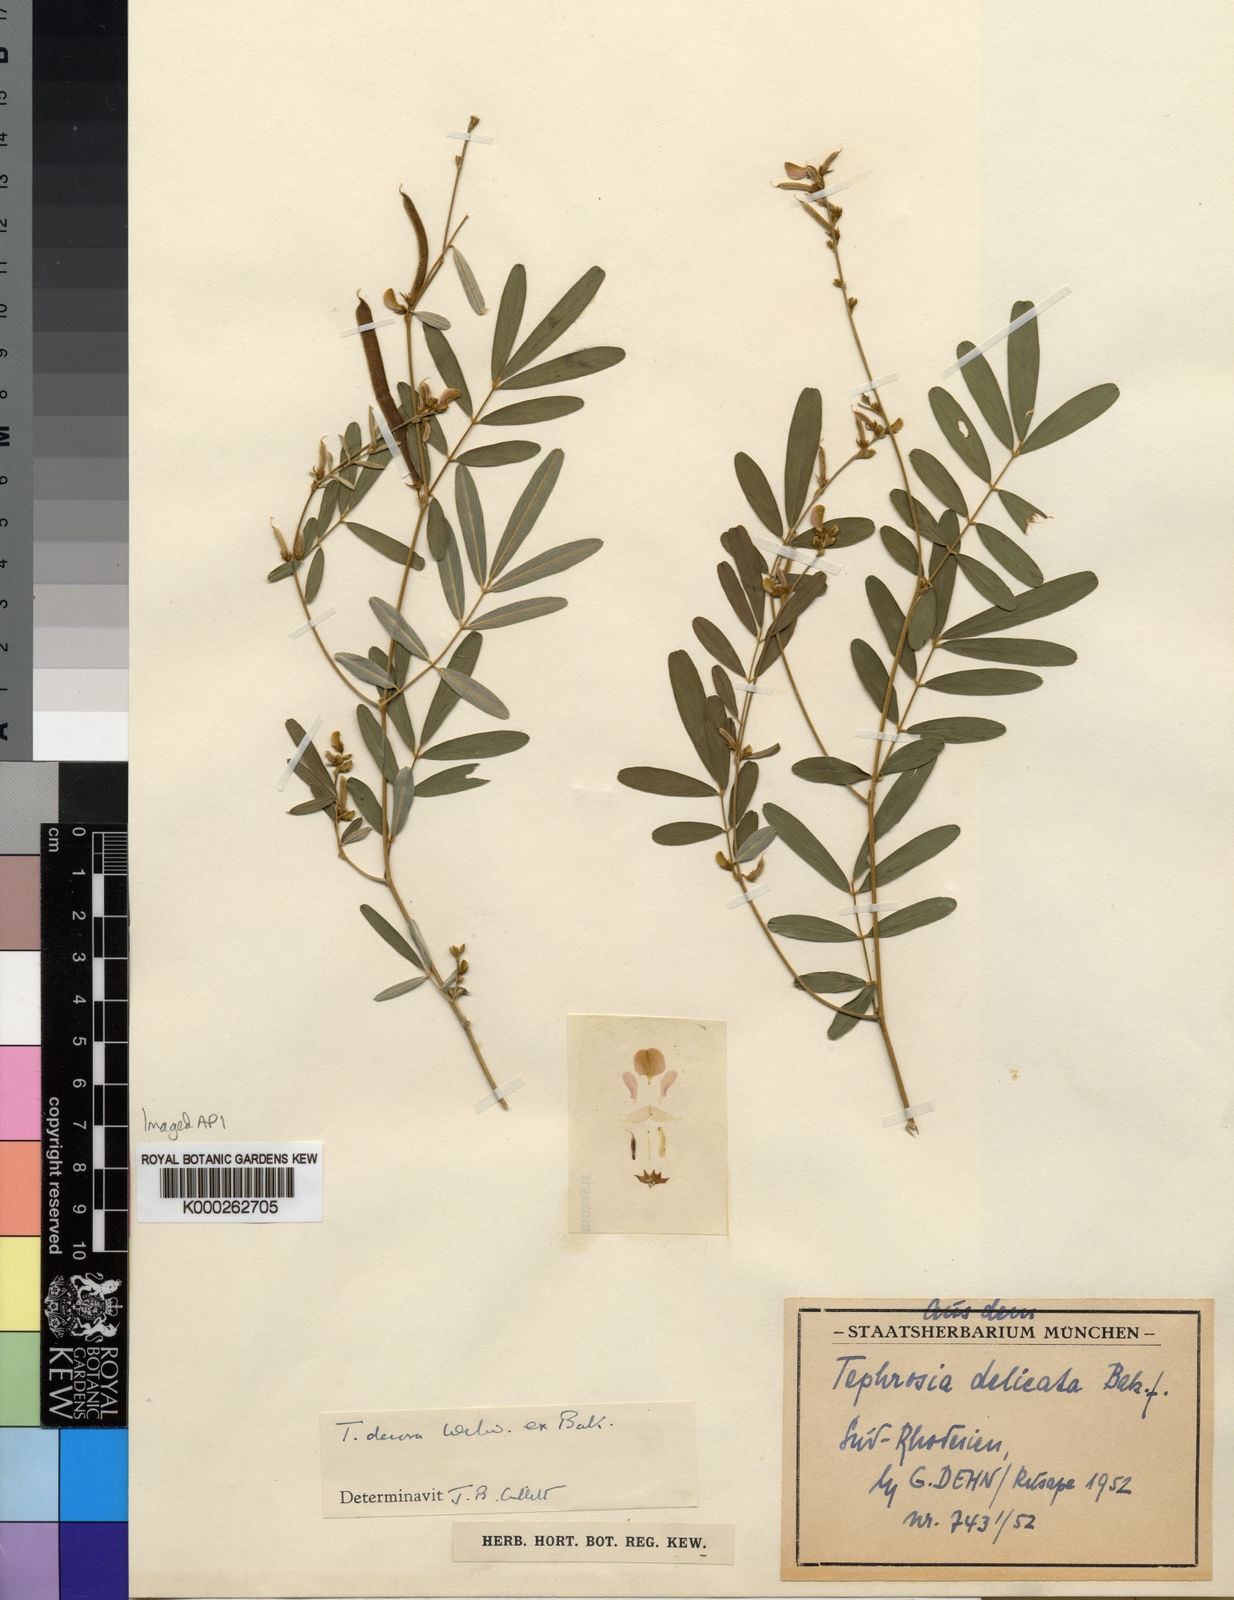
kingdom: Plantae
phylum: Tracheophyta
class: Magnoliopsida
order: Fabales
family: Fabaceae
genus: Tephrosia
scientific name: Tephrosia decora
